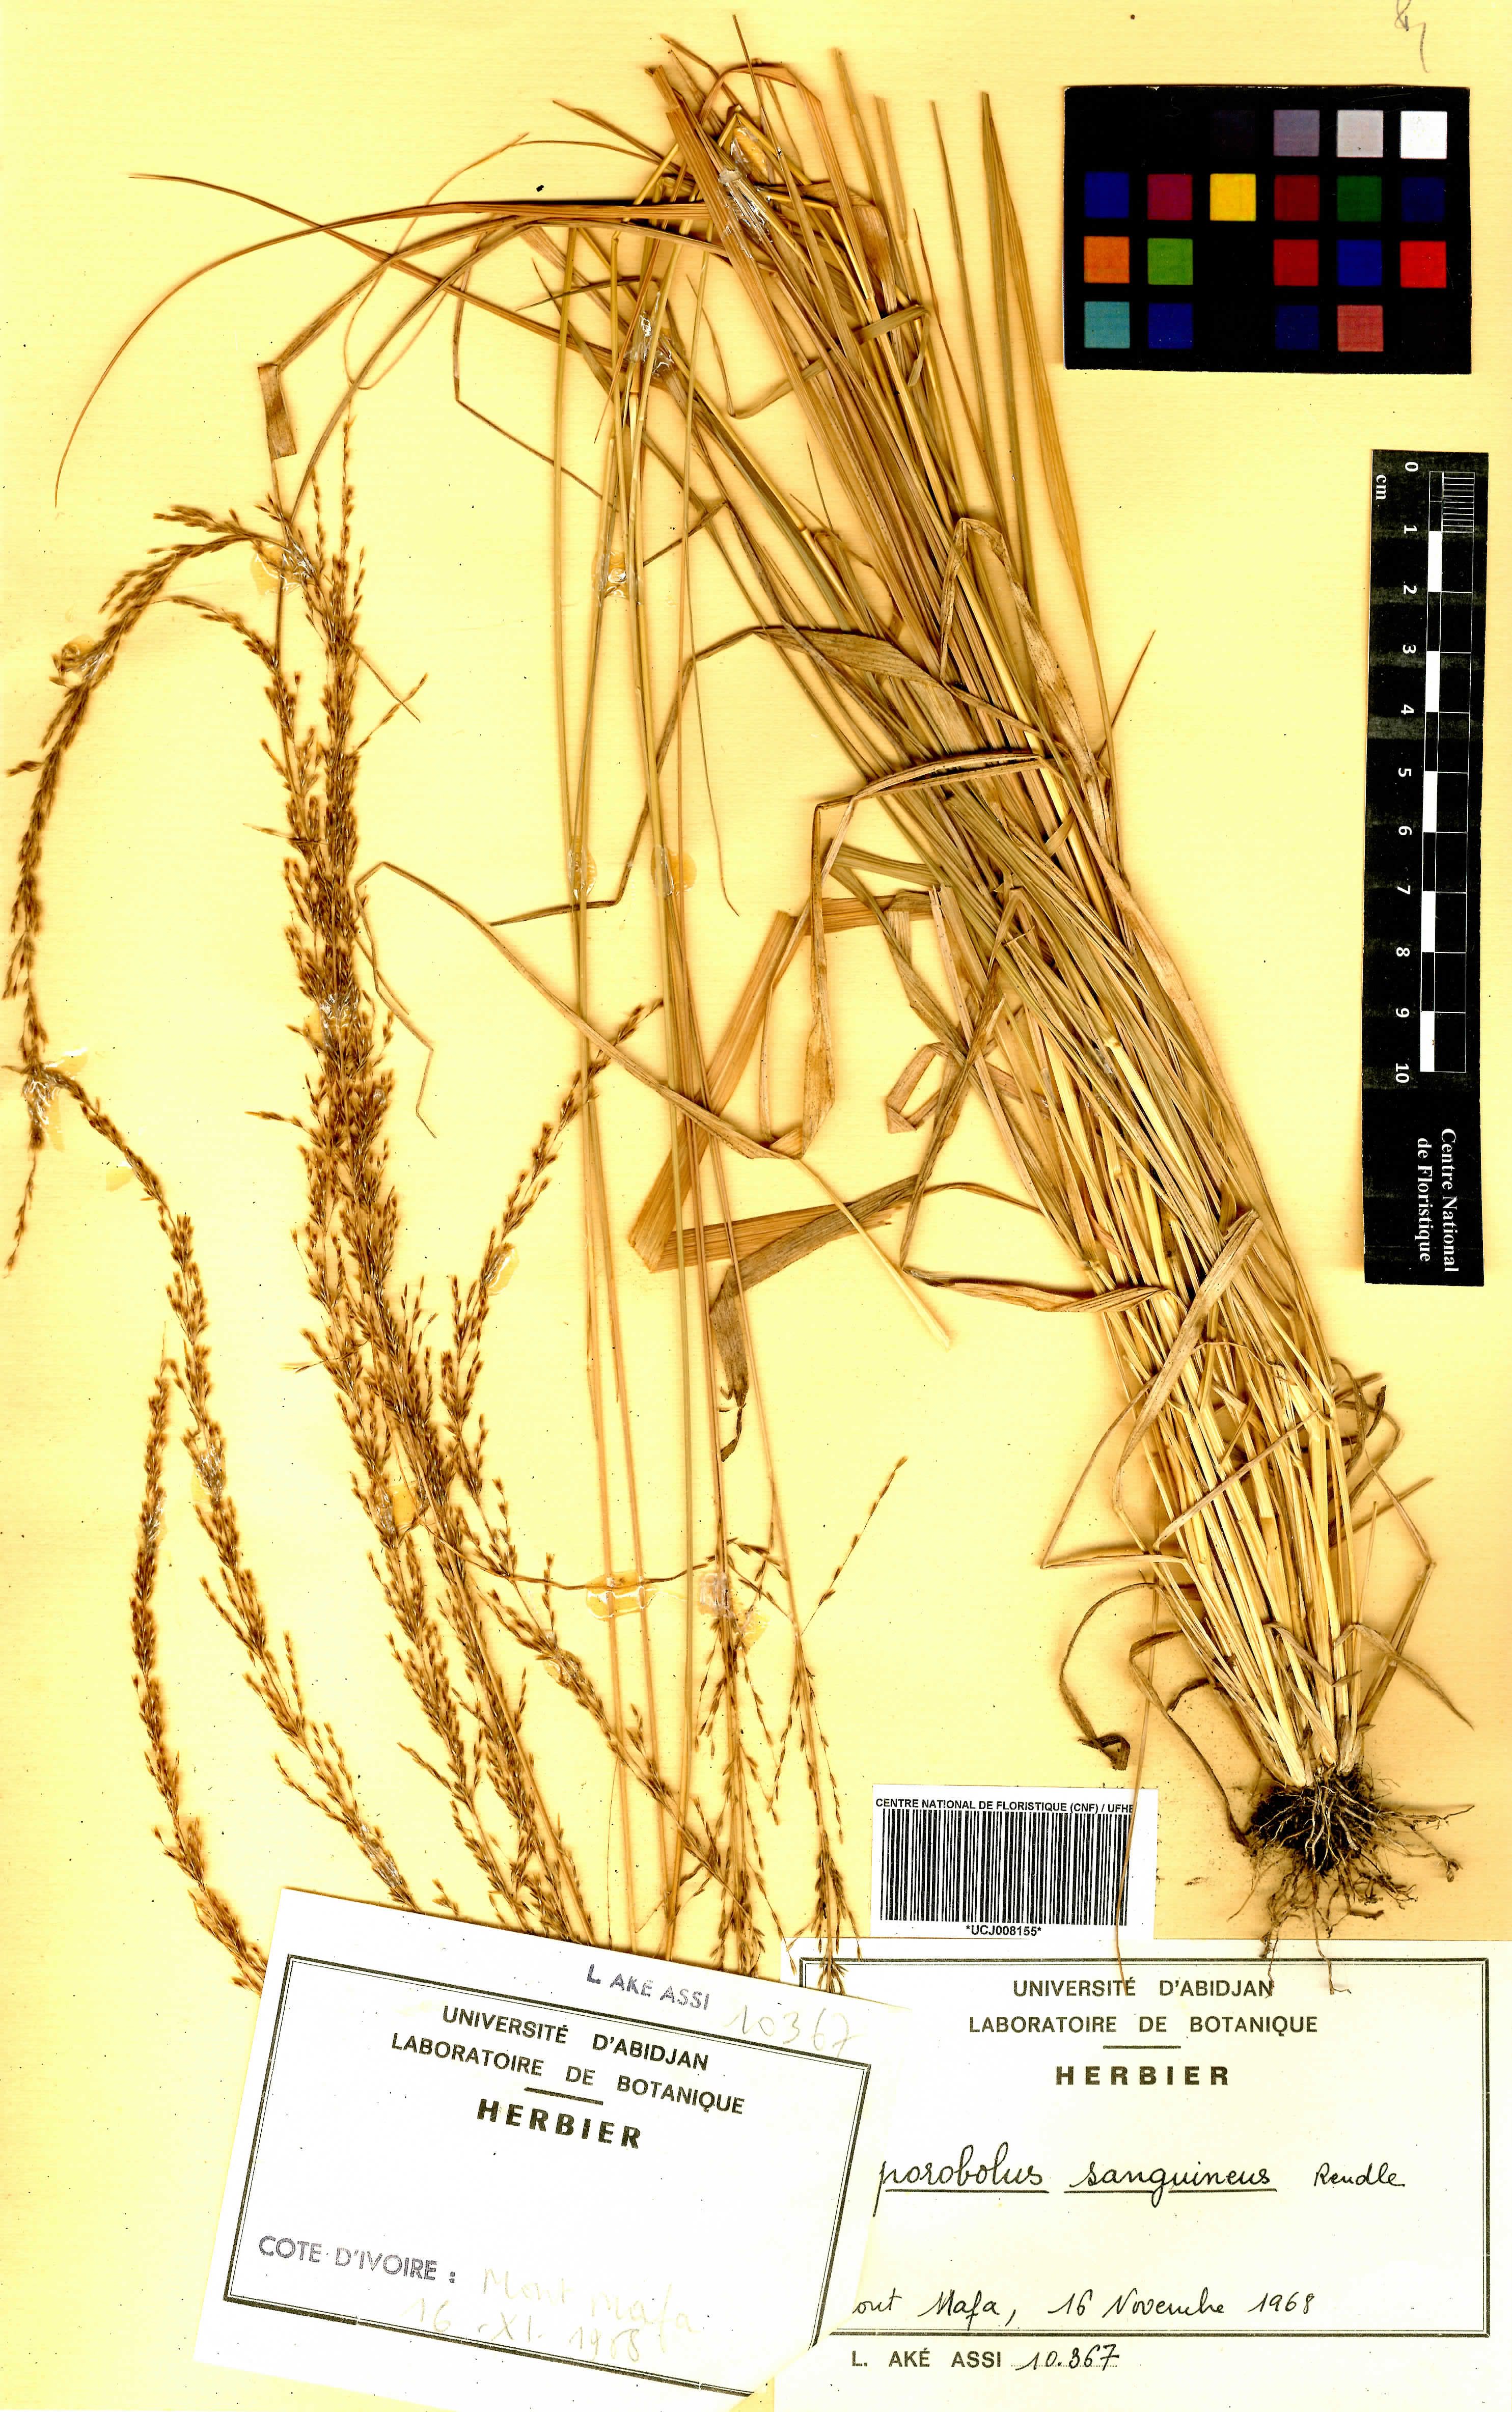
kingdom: Plantae
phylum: Tracheophyta
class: Liliopsida
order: Poales
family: Poaceae
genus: Sporobolus
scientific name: Sporobolus sanguineus
